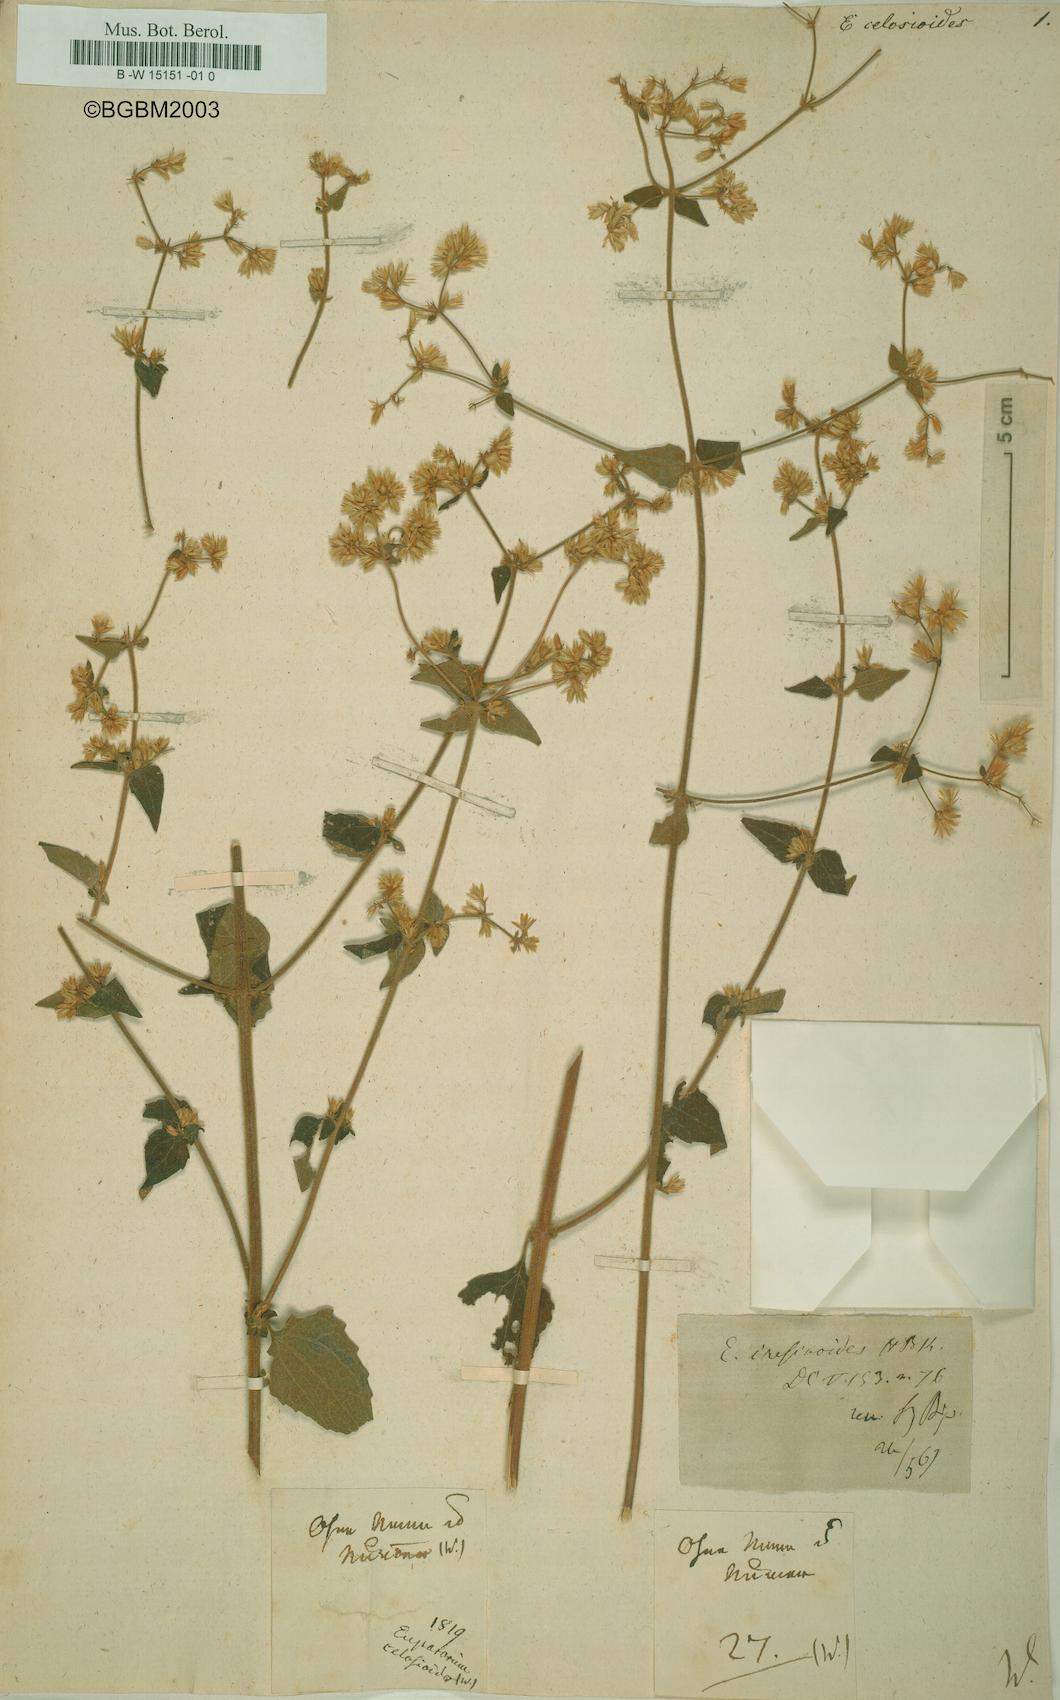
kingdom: Plantae
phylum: Tracheophyta
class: Magnoliopsida
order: Asterales
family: Asteraceae
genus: Condylidium
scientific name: Condylidium iresinoides
